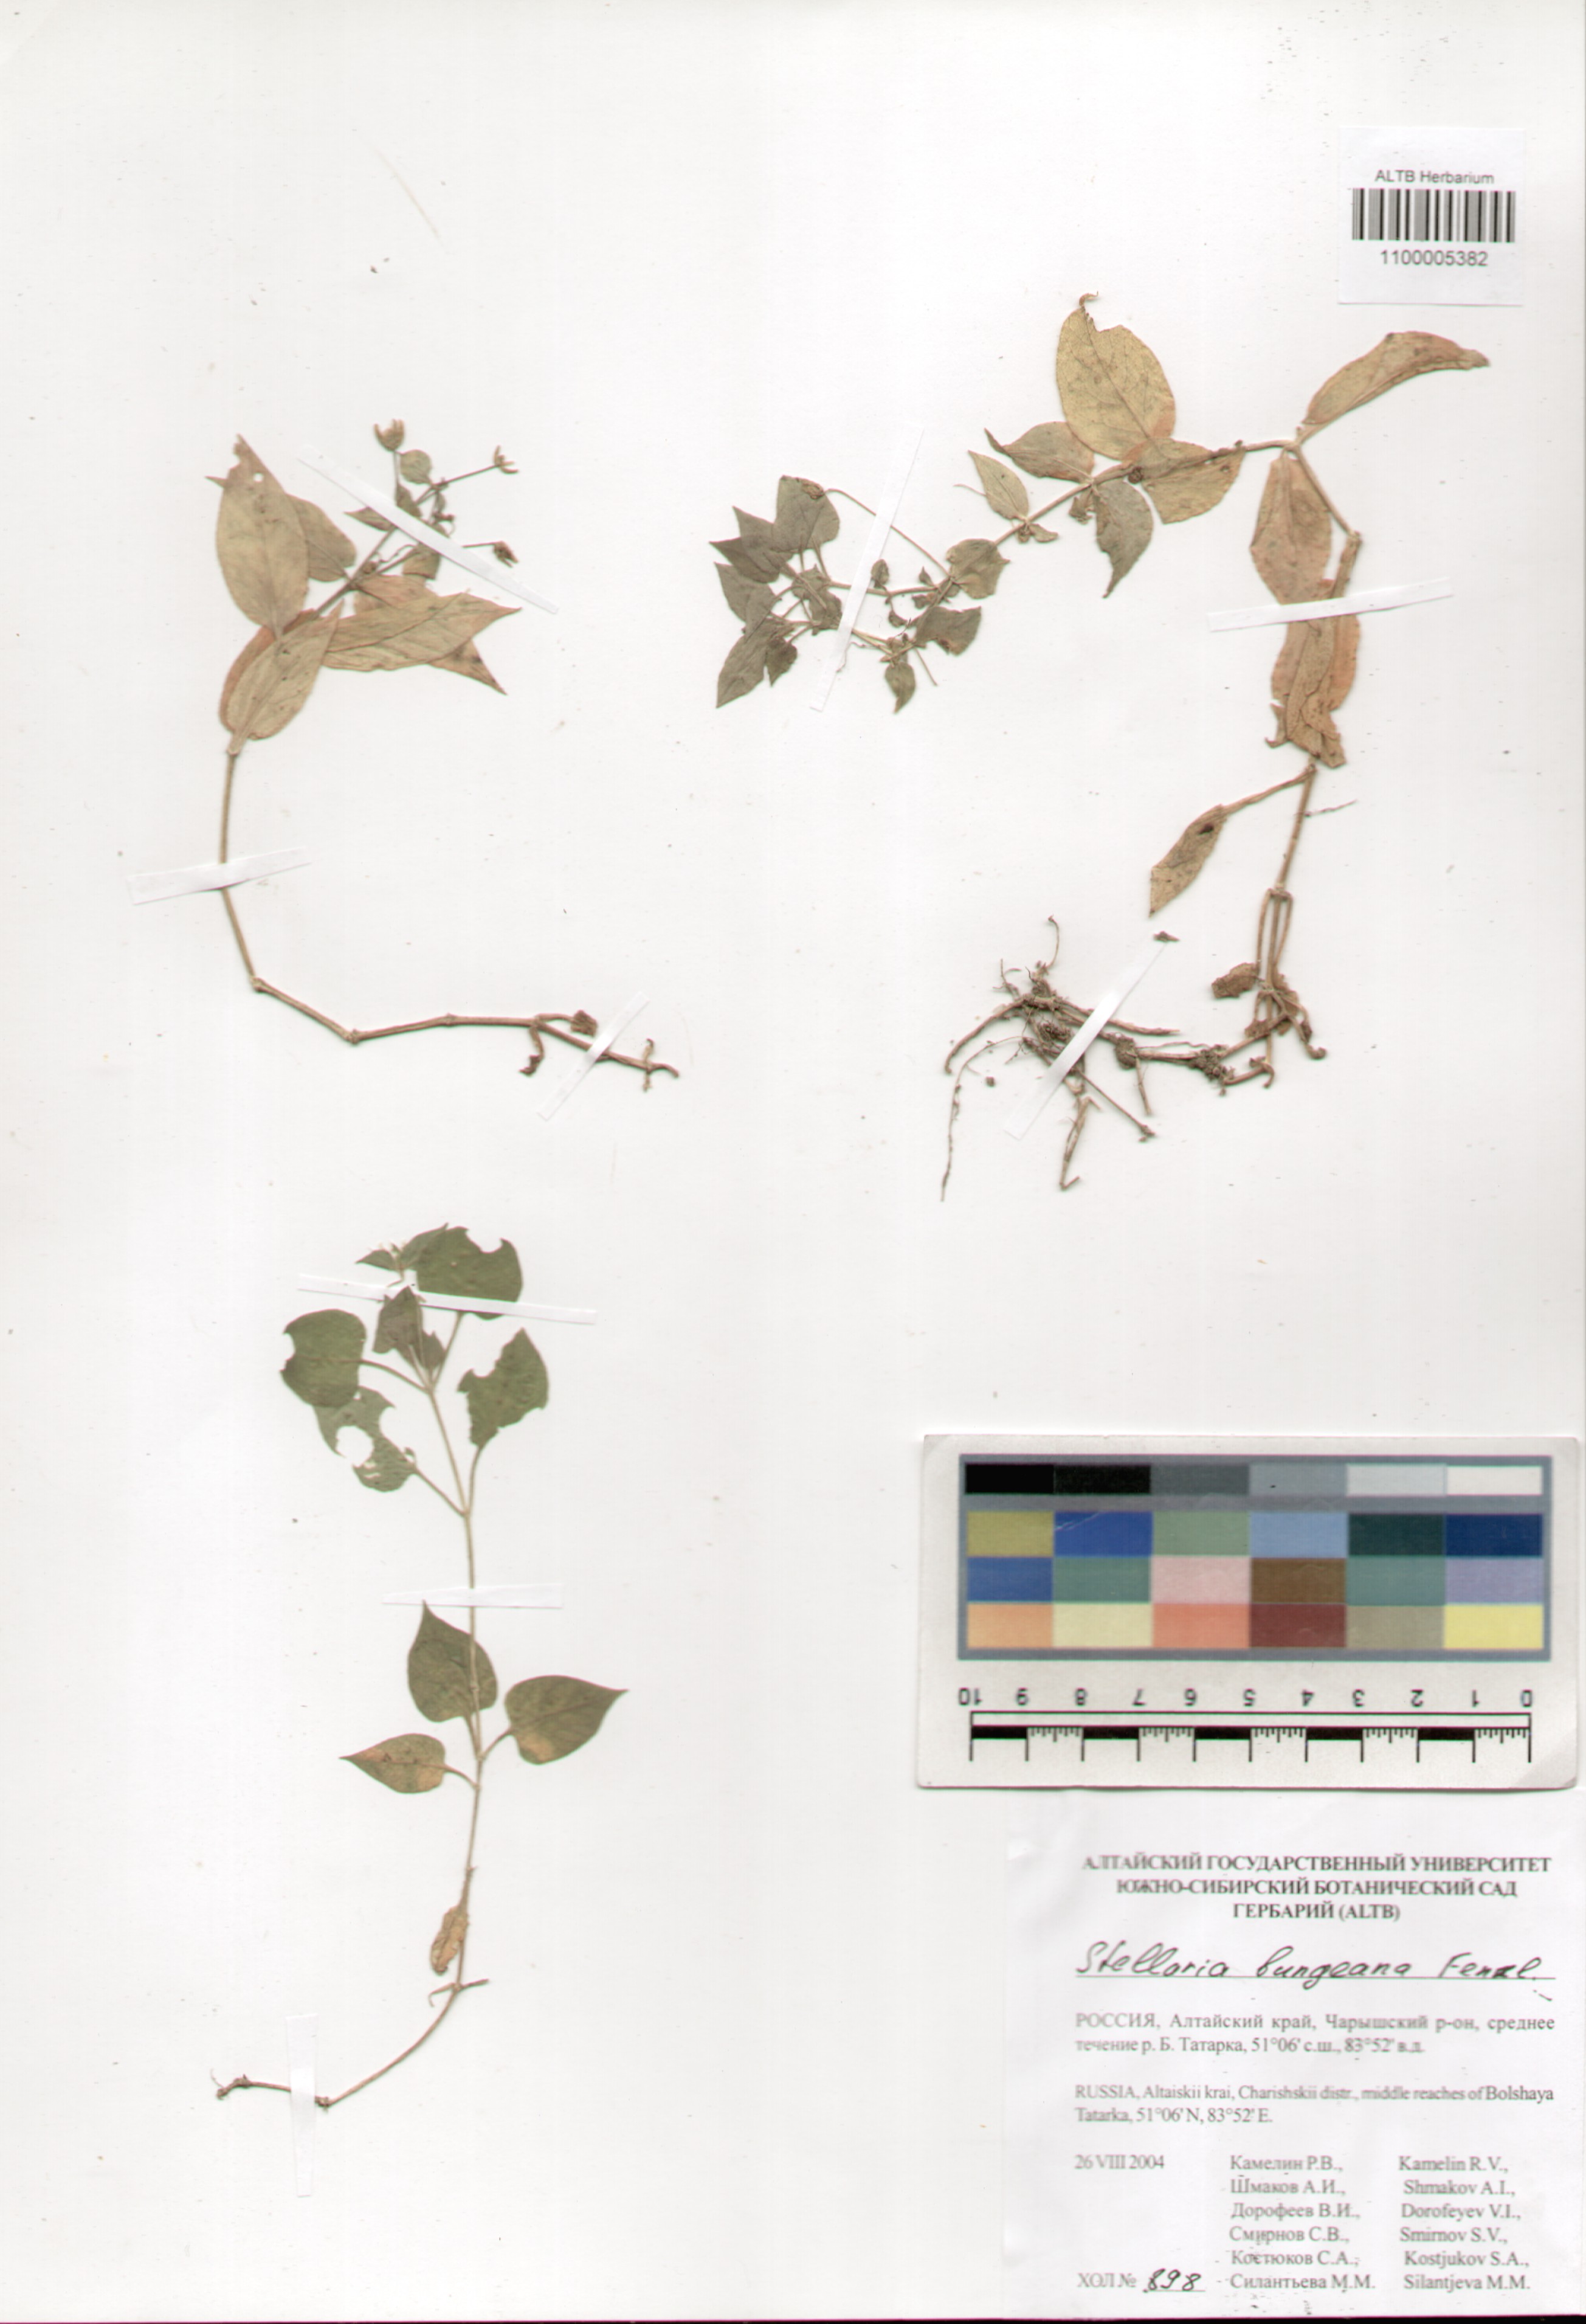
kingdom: Plantae
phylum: Tracheophyta
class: Magnoliopsida
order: Caryophyllales
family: Caryophyllaceae
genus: Stellaria
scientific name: Stellaria bungeana
